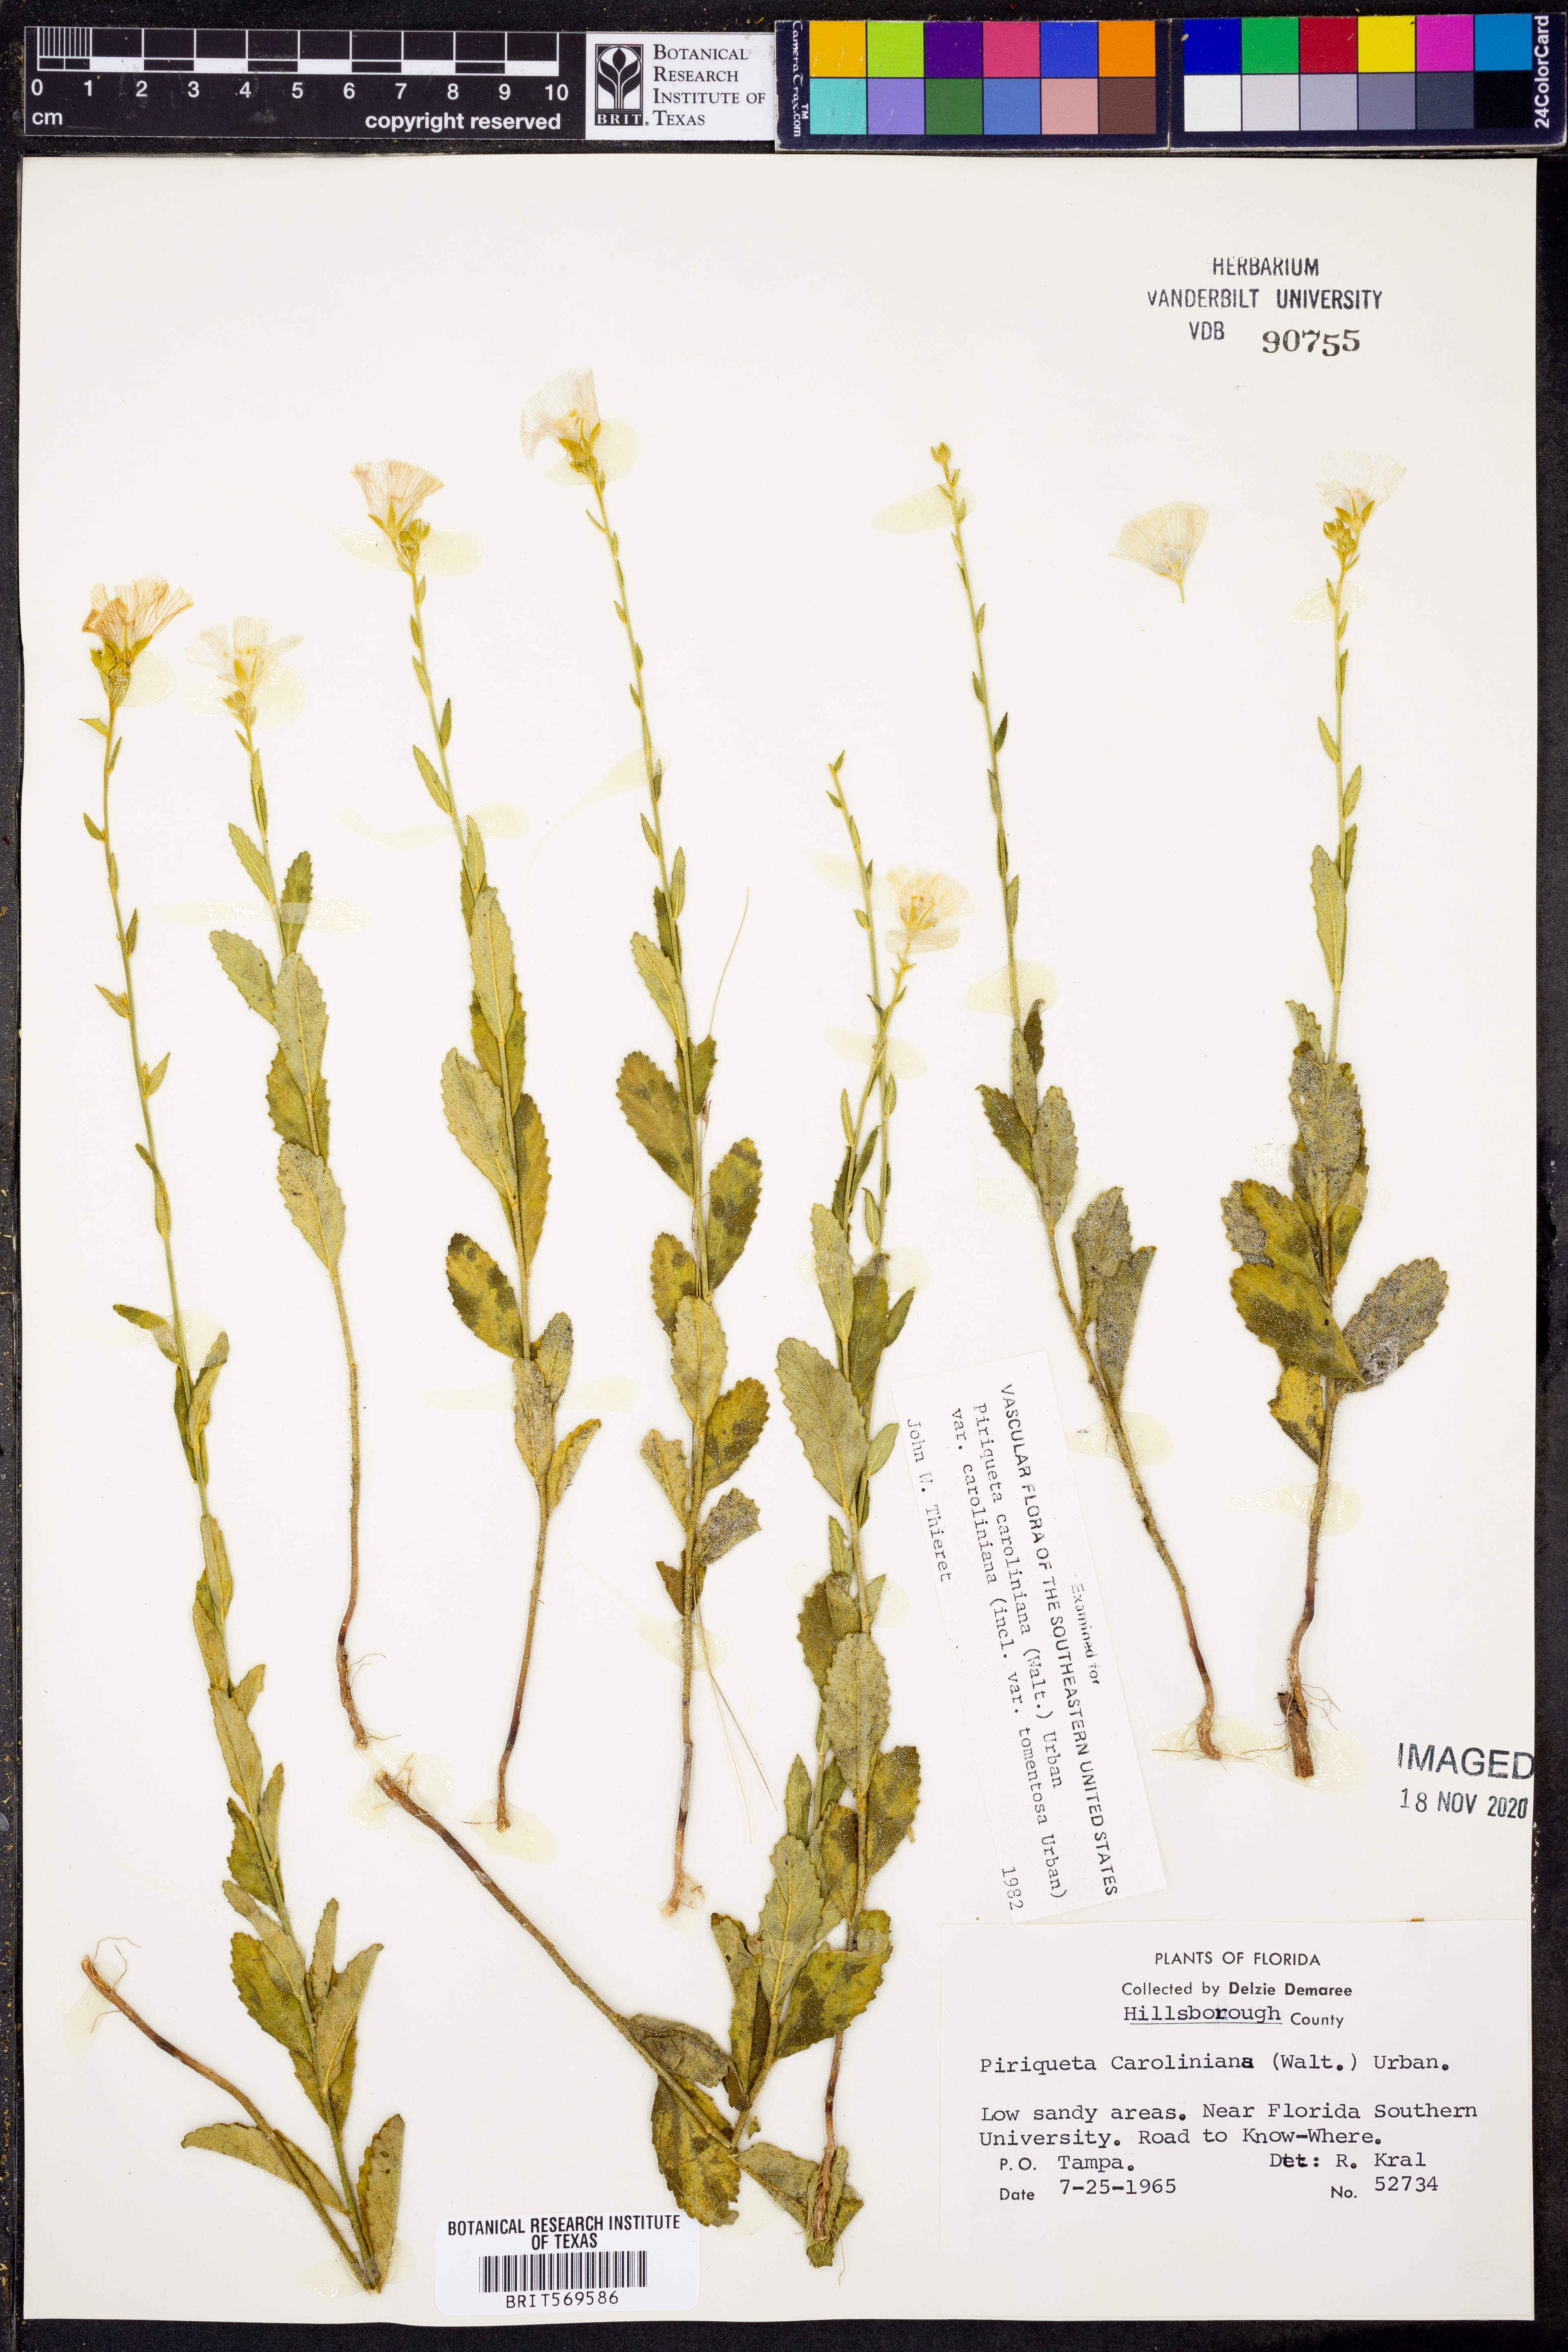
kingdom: Plantae
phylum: Tracheophyta
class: Magnoliopsida
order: Malpighiales
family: Turneraceae
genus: Piriqueta
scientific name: Piriqueta cistoides
